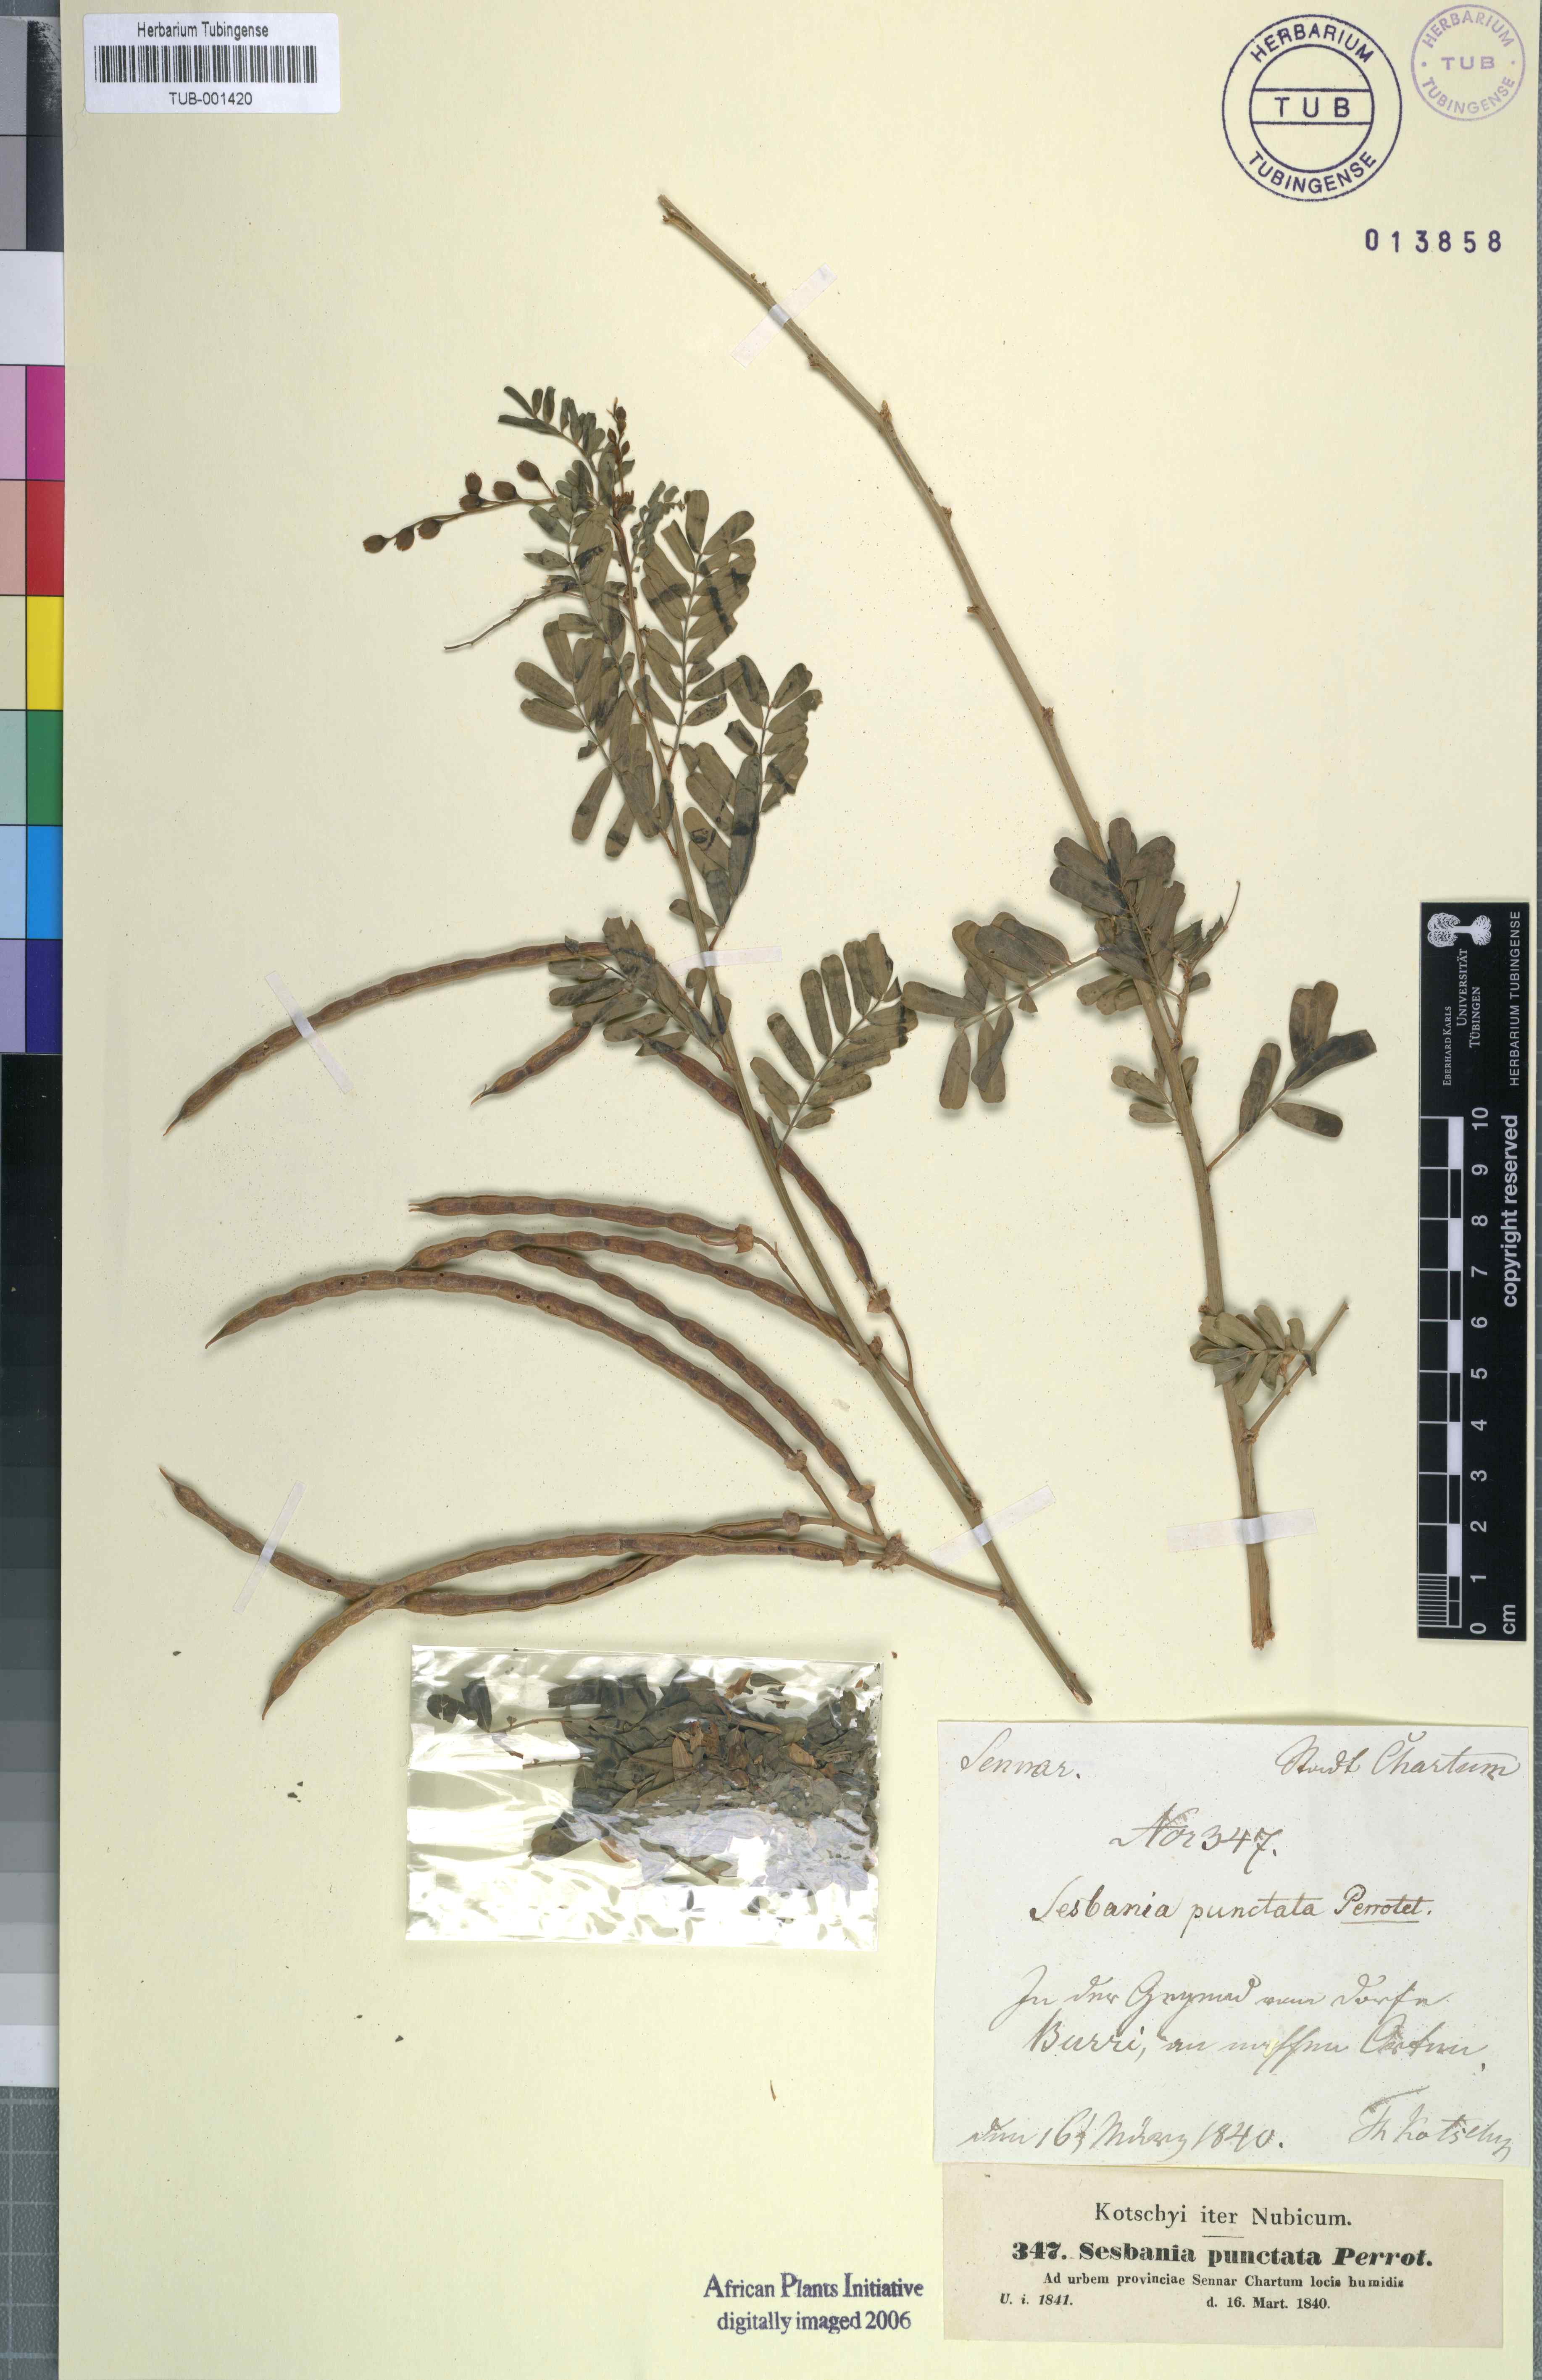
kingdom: Plantae
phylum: Tracheophyta
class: Magnoliopsida
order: Fabales
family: Fabaceae
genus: Sesbania
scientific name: Sesbania sesban
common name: Egyptian sesban
